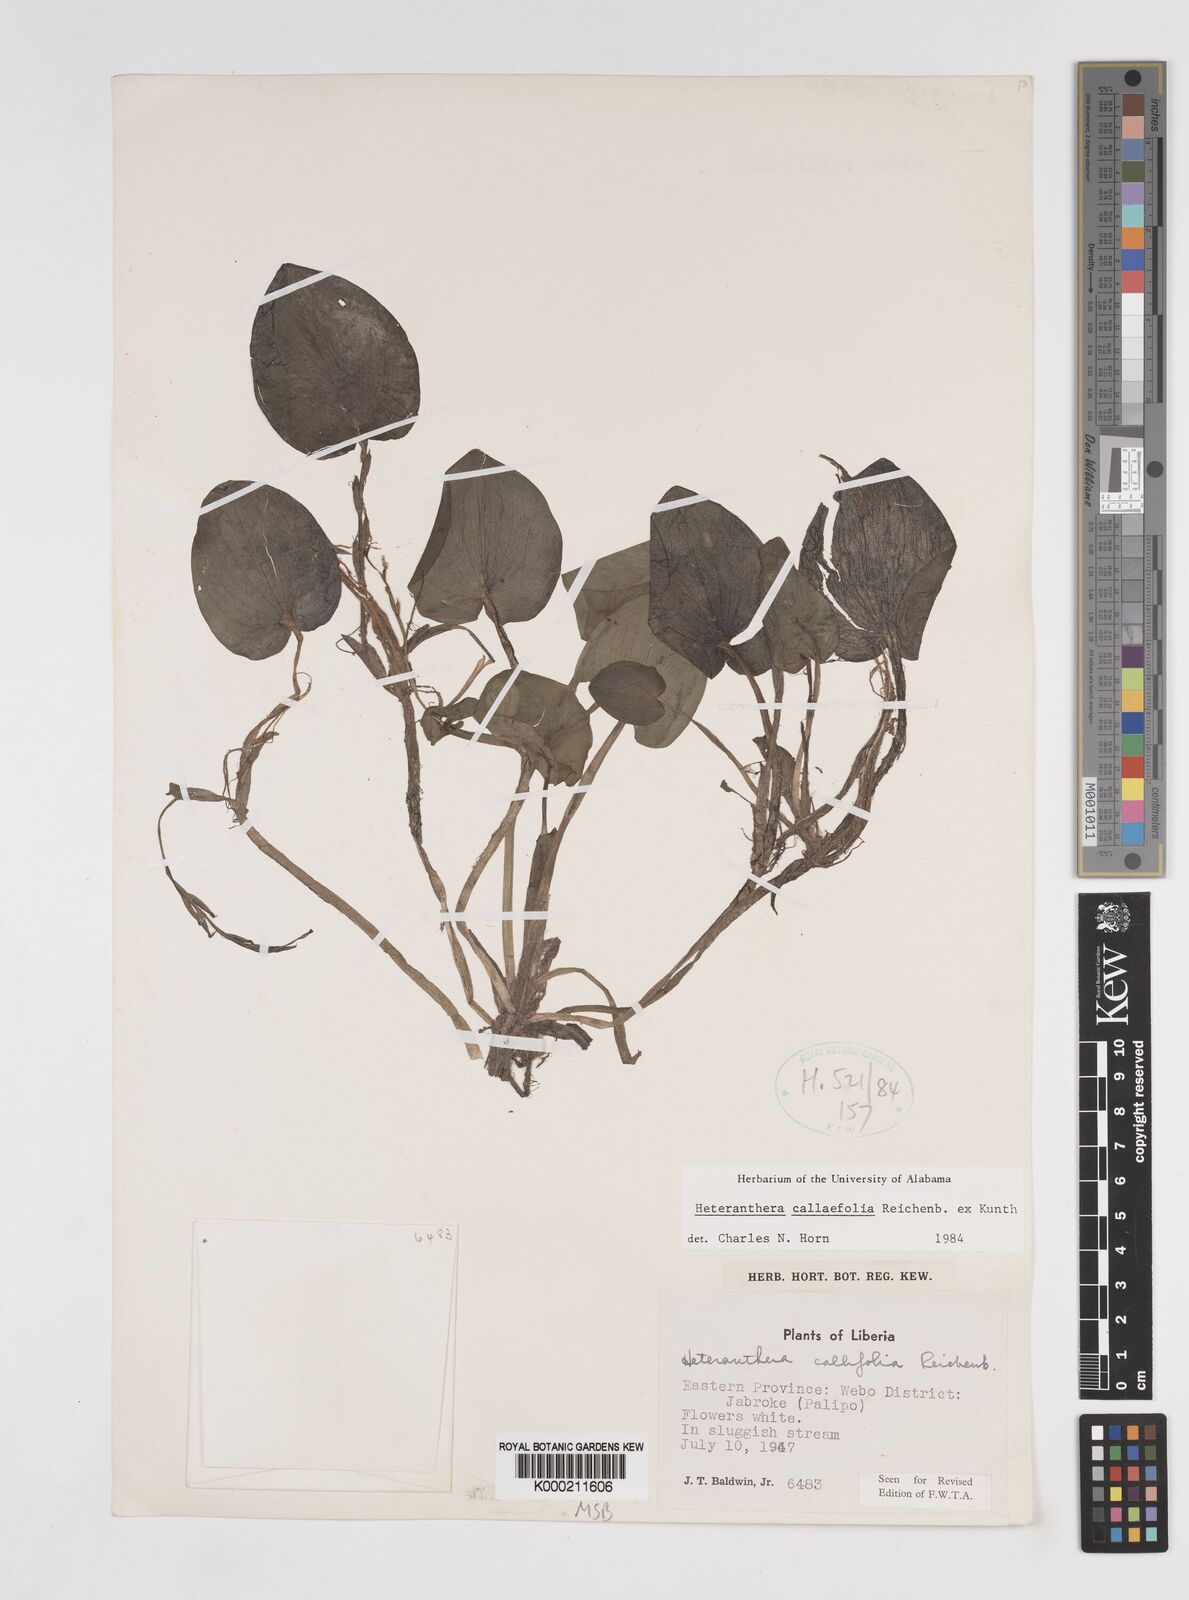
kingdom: Plantae
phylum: Tracheophyta
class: Liliopsida
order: Commelinales
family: Pontederiaceae
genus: Heteranthera
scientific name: Heteranthera callifolia
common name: Mud plantain
